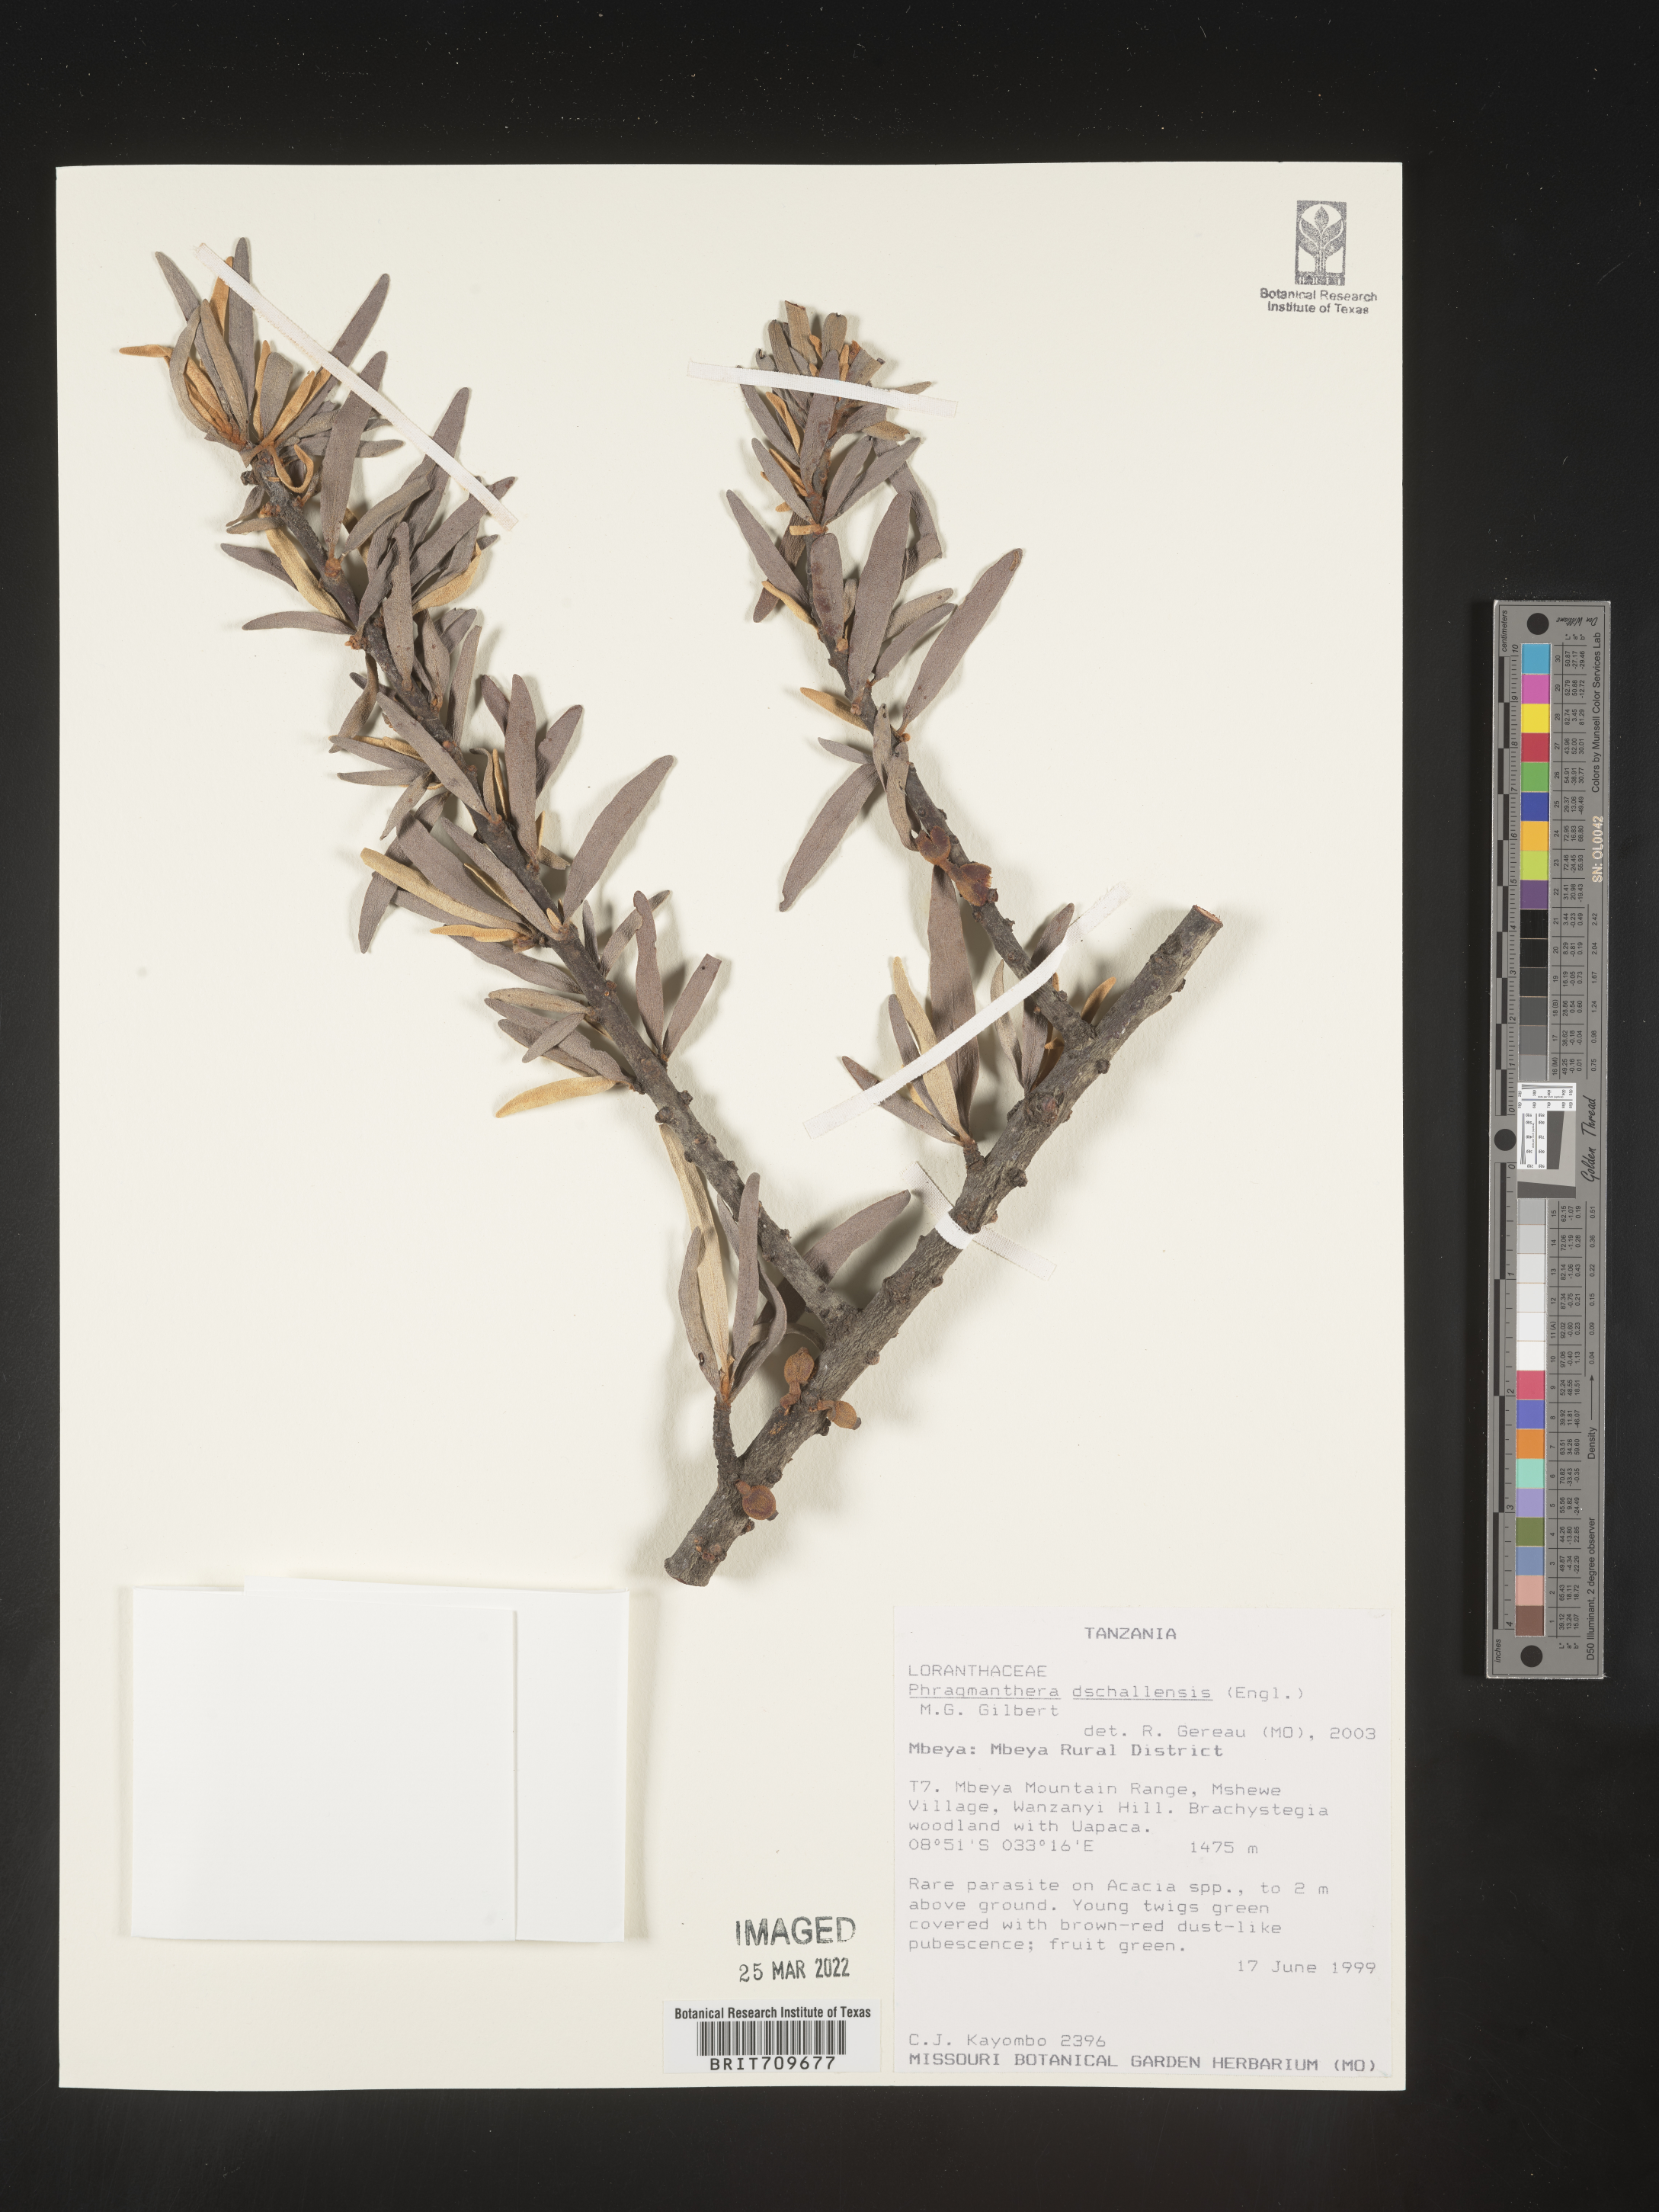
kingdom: Plantae
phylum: Tracheophyta
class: Magnoliopsida
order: Santalales
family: Loranthaceae
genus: Phragmanthera
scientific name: Phragmanthera
